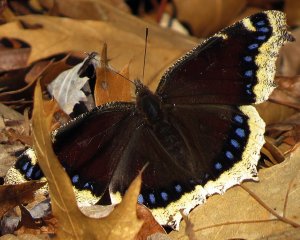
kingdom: Animalia
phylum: Arthropoda
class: Insecta
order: Lepidoptera
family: Nymphalidae
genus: Nymphalis
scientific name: Nymphalis antiopa
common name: Mourning Cloak
